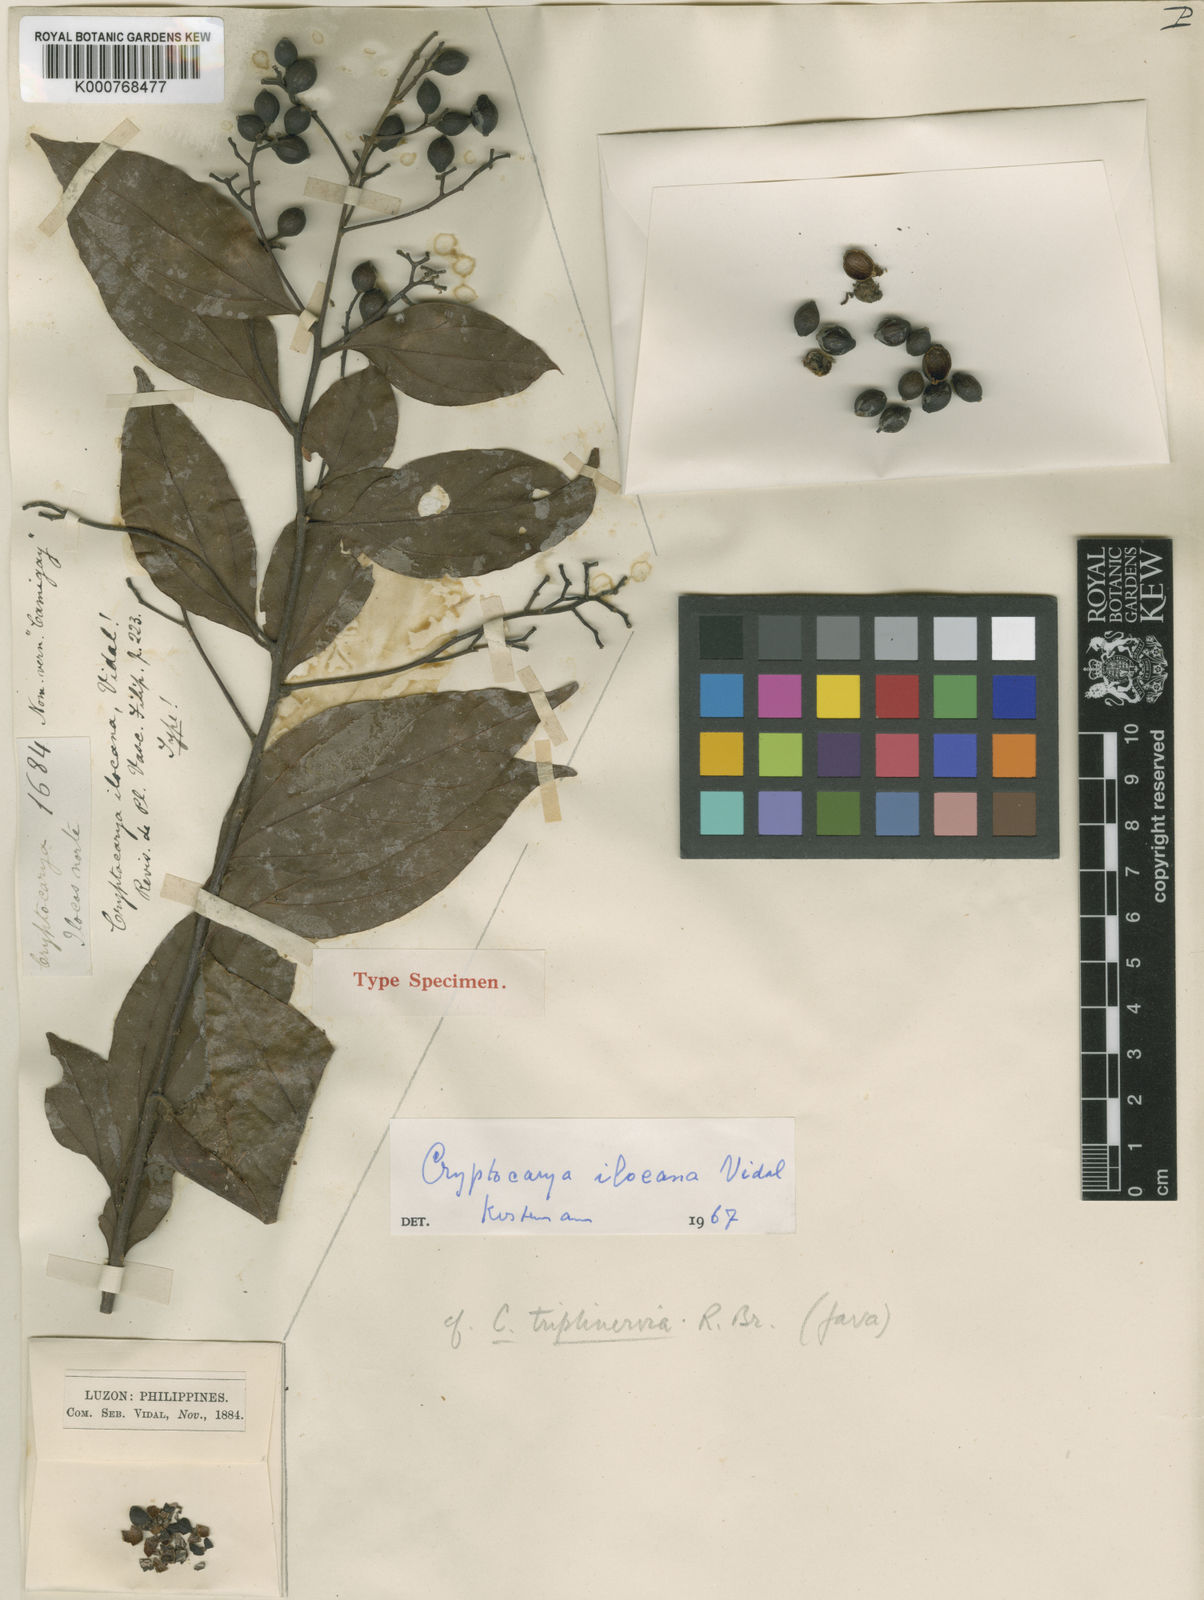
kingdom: Plantae
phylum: Tracheophyta
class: Magnoliopsida
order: Laurales
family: Lauraceae
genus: Cryptocarya
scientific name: Cryptocarya subvelutina
